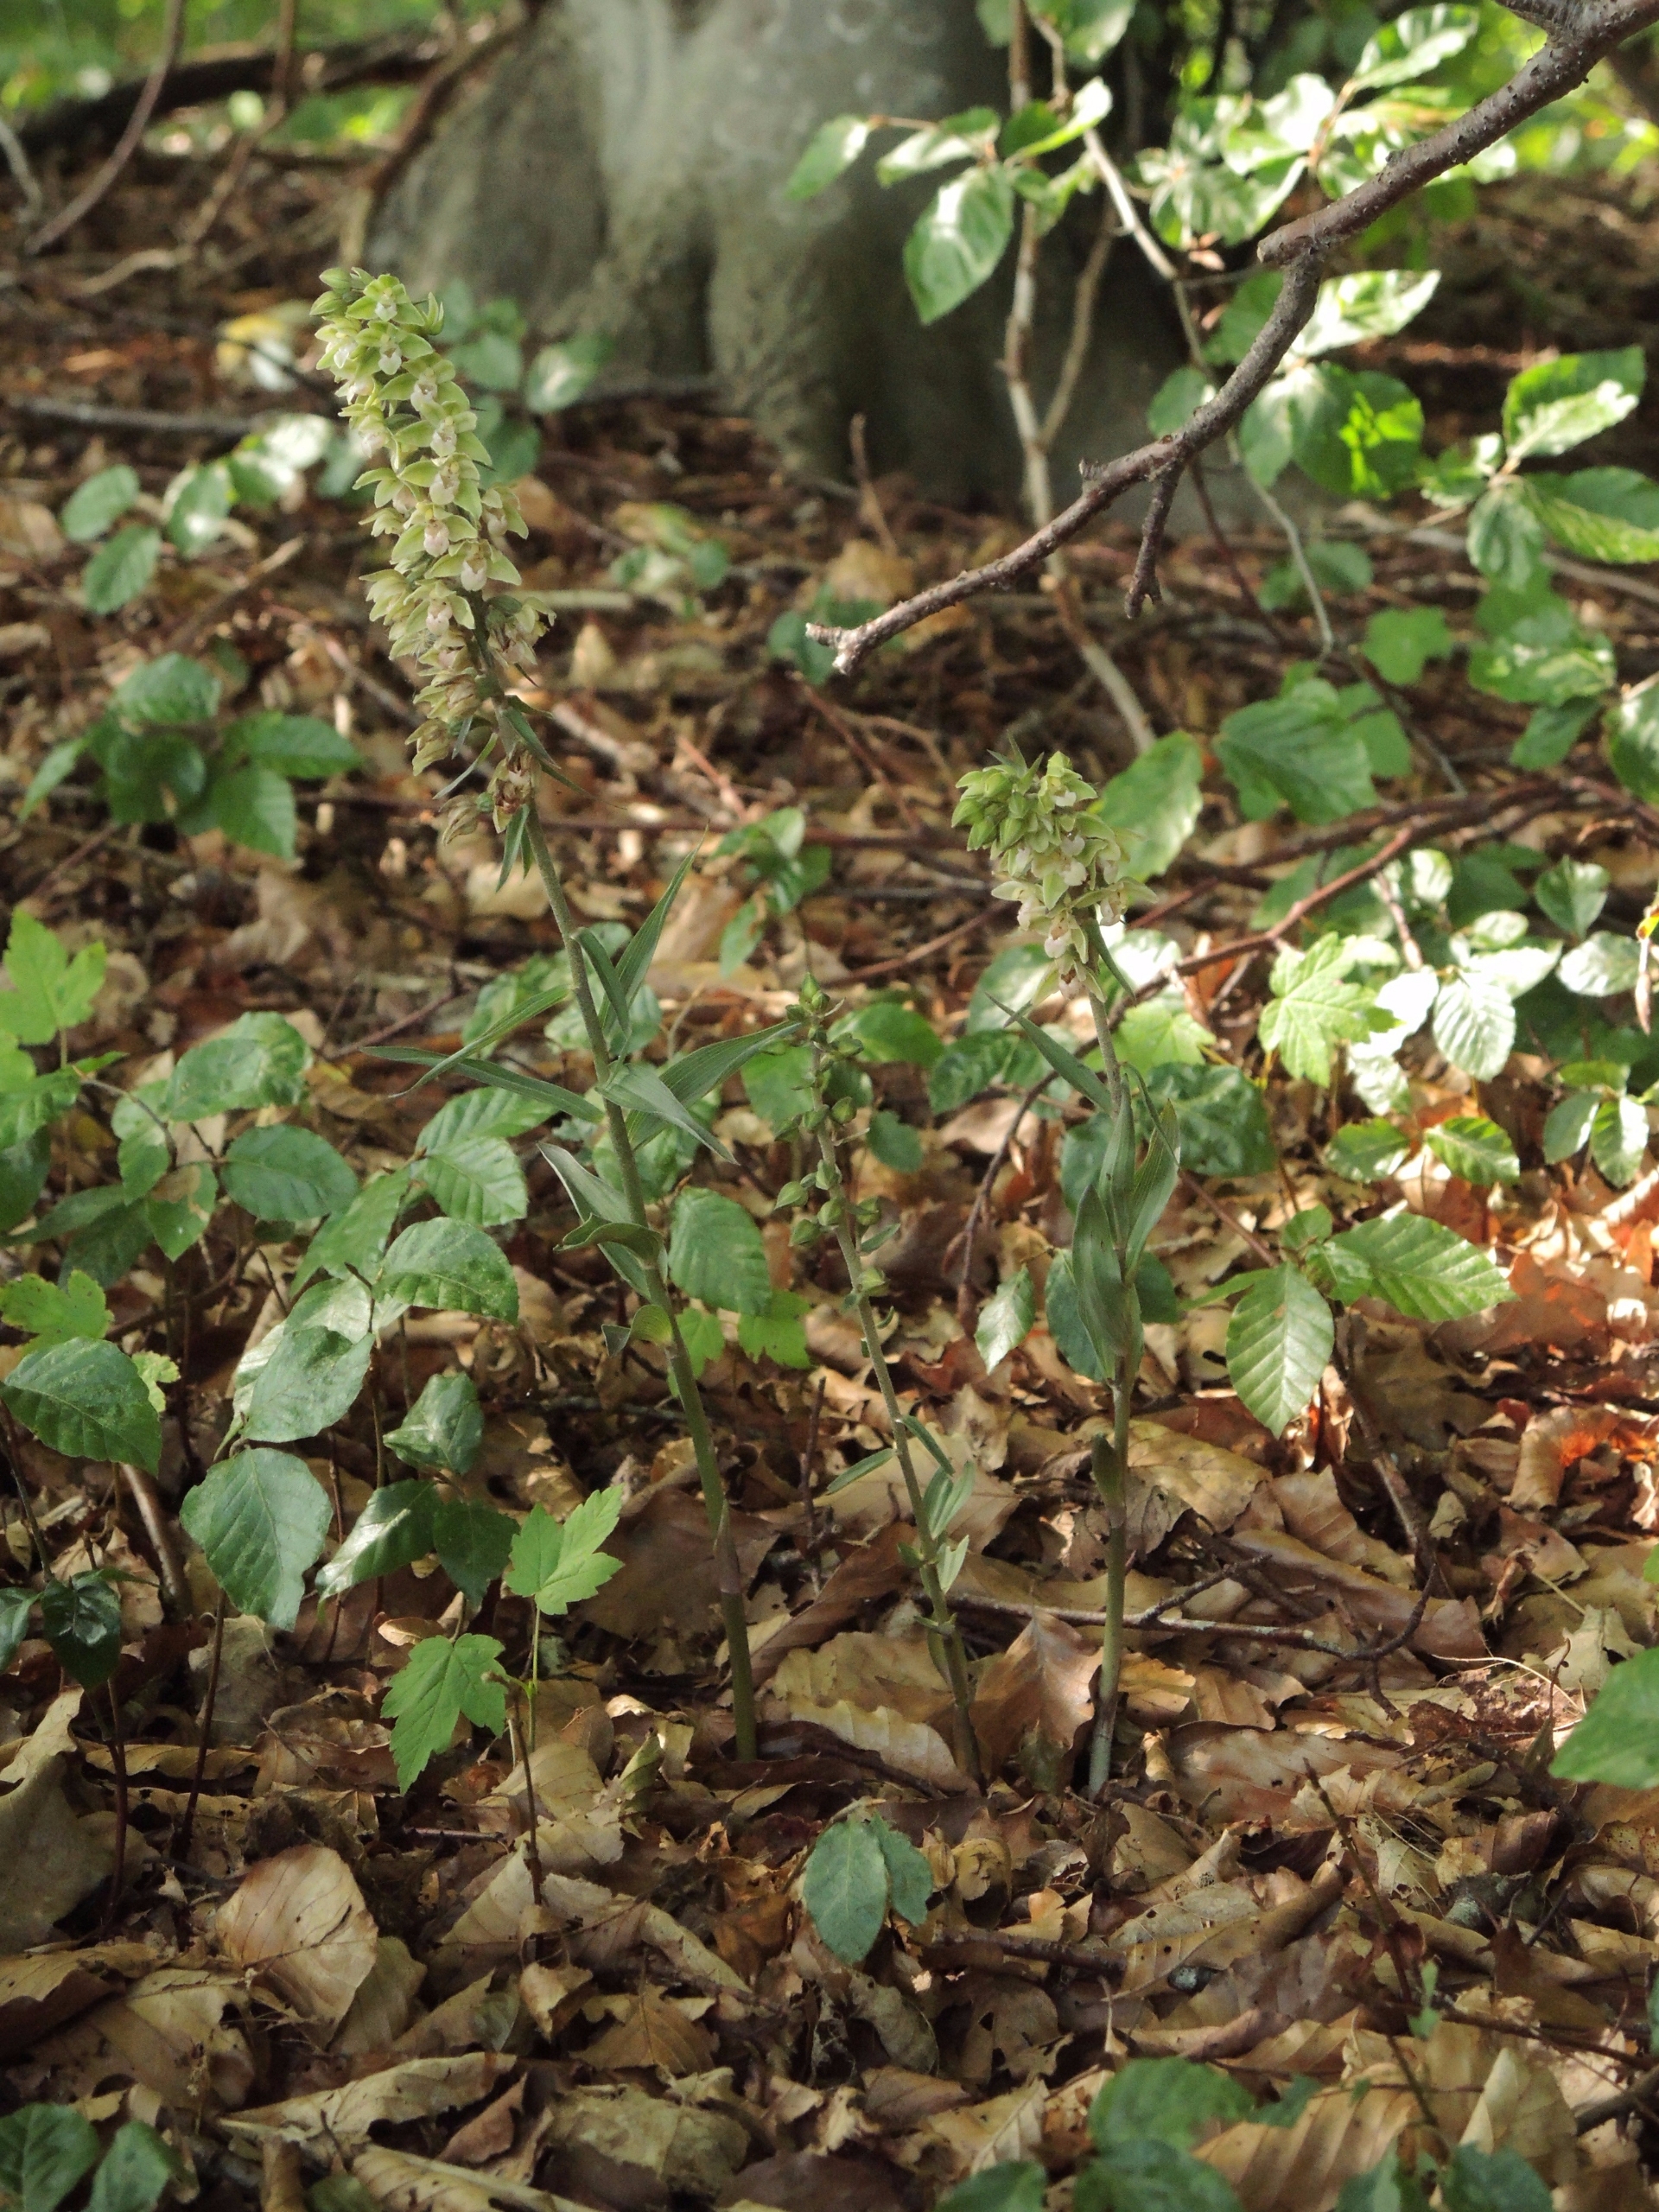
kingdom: Plantae
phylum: Tracheophyta
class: Liliopsida
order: Asparagales
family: Orchidaceae
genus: Epipactis
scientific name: Epipactis purpurata
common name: Tætblomstret hullæbe
